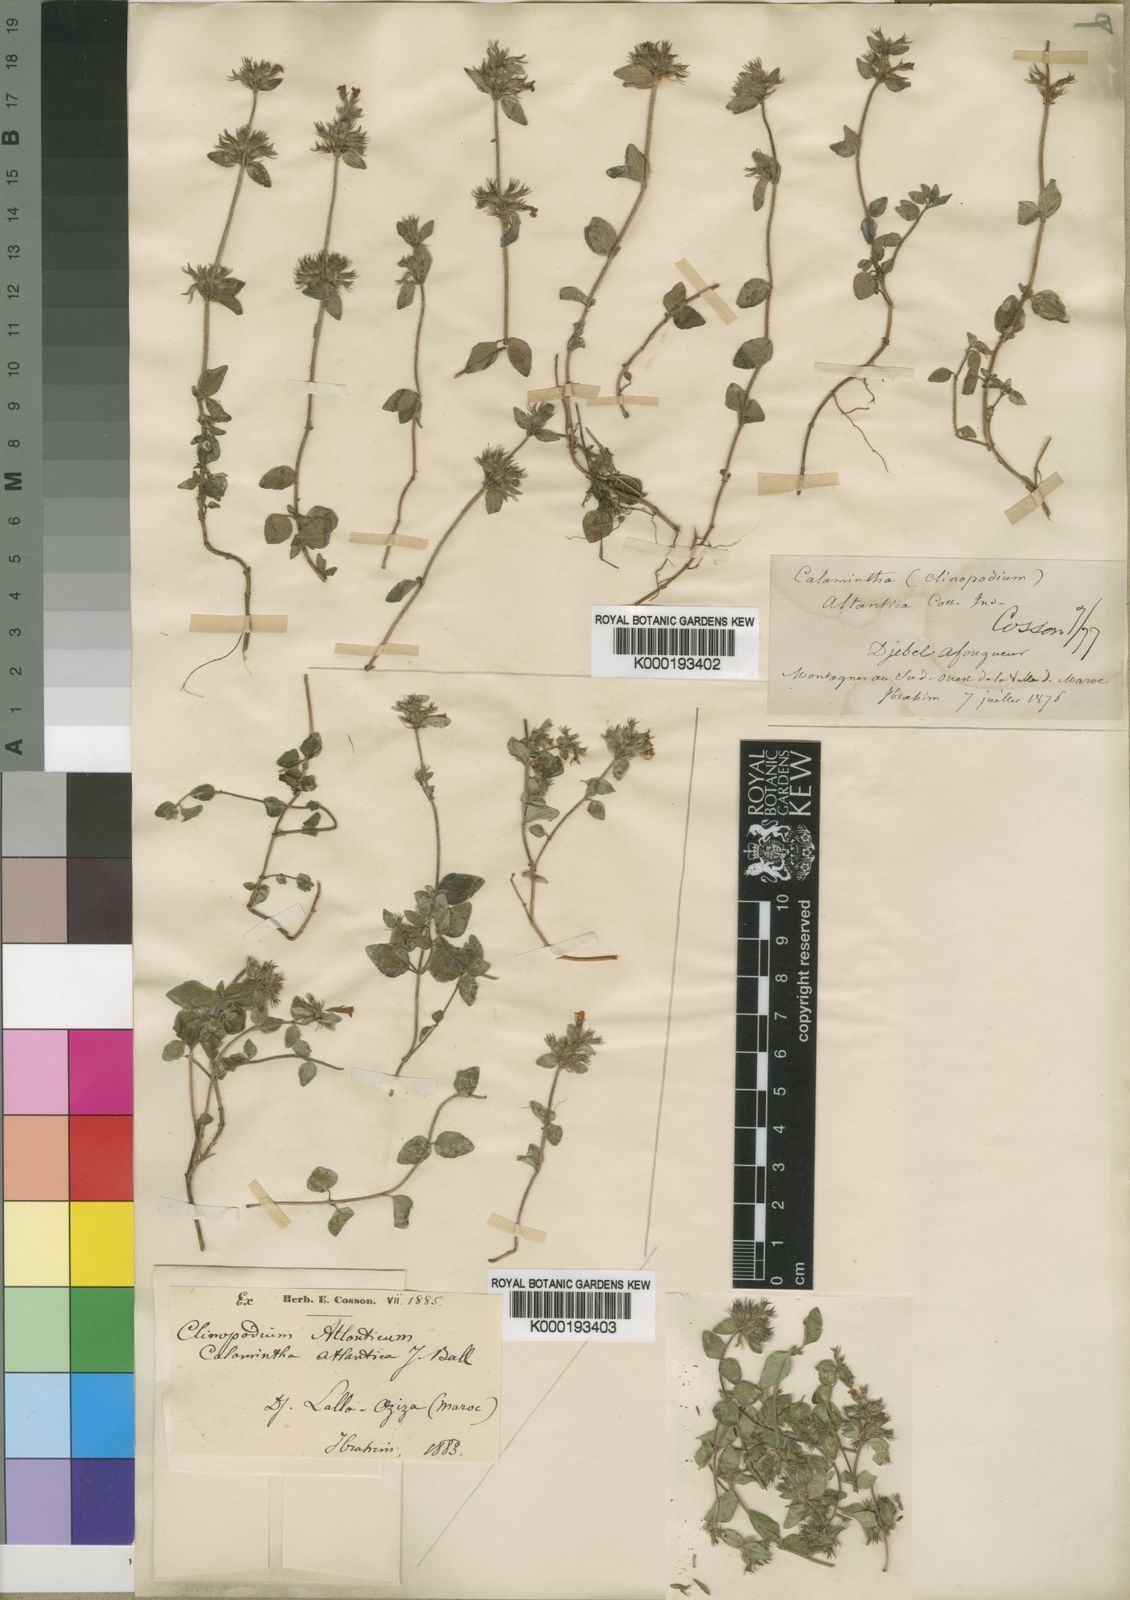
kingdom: Plantae
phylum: Tracheophyta
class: Magnoliopsida
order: Lamiales
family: Lamiaceae
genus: Clinopodium
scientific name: Clinopodium atlanticum
